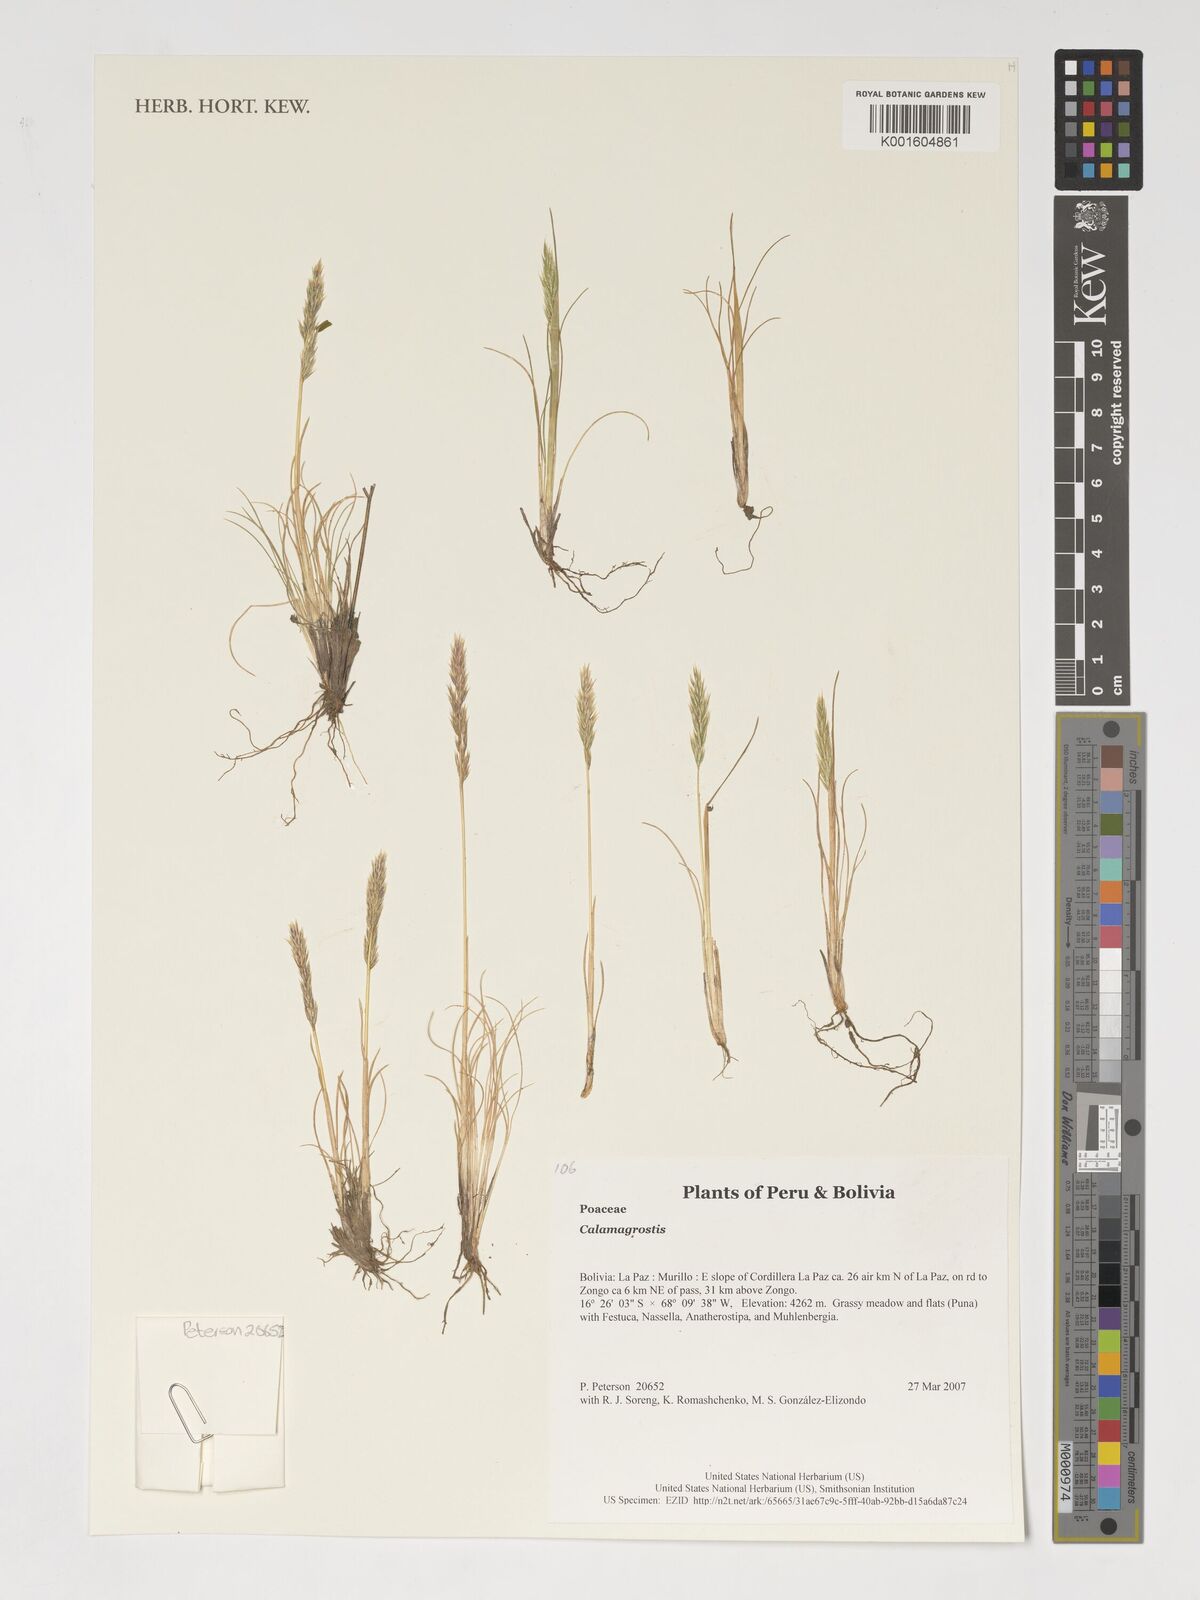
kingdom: Plantae
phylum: Tracheophyta
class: Liliopsida
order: Poales
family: Poaceae
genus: Calamagrostis
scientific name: Calamagrostis
